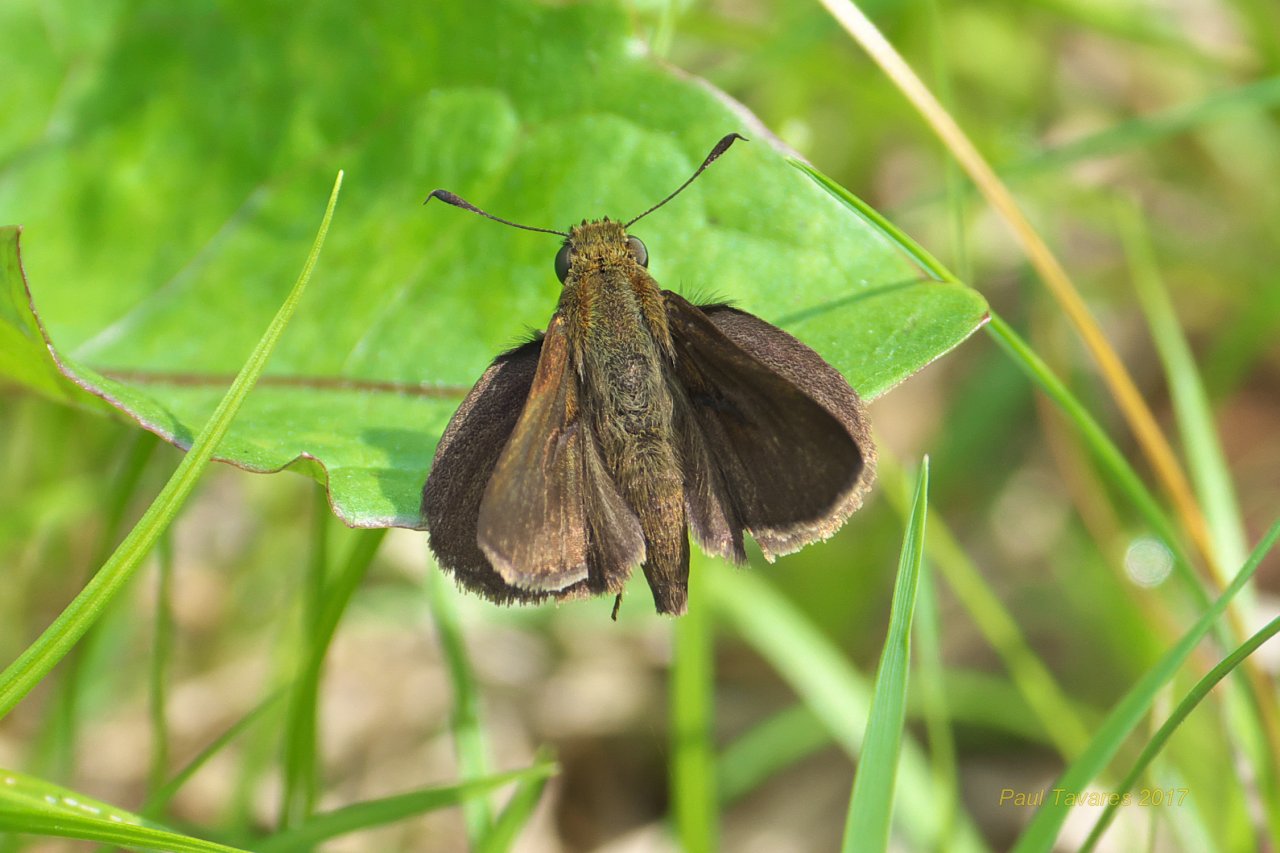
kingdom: Animalia
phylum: Arthropoda
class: Insecta
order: Lepidoptera
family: Hesperiidae
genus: Euphyes
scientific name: Euphyes vestris
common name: Dun Skipper
